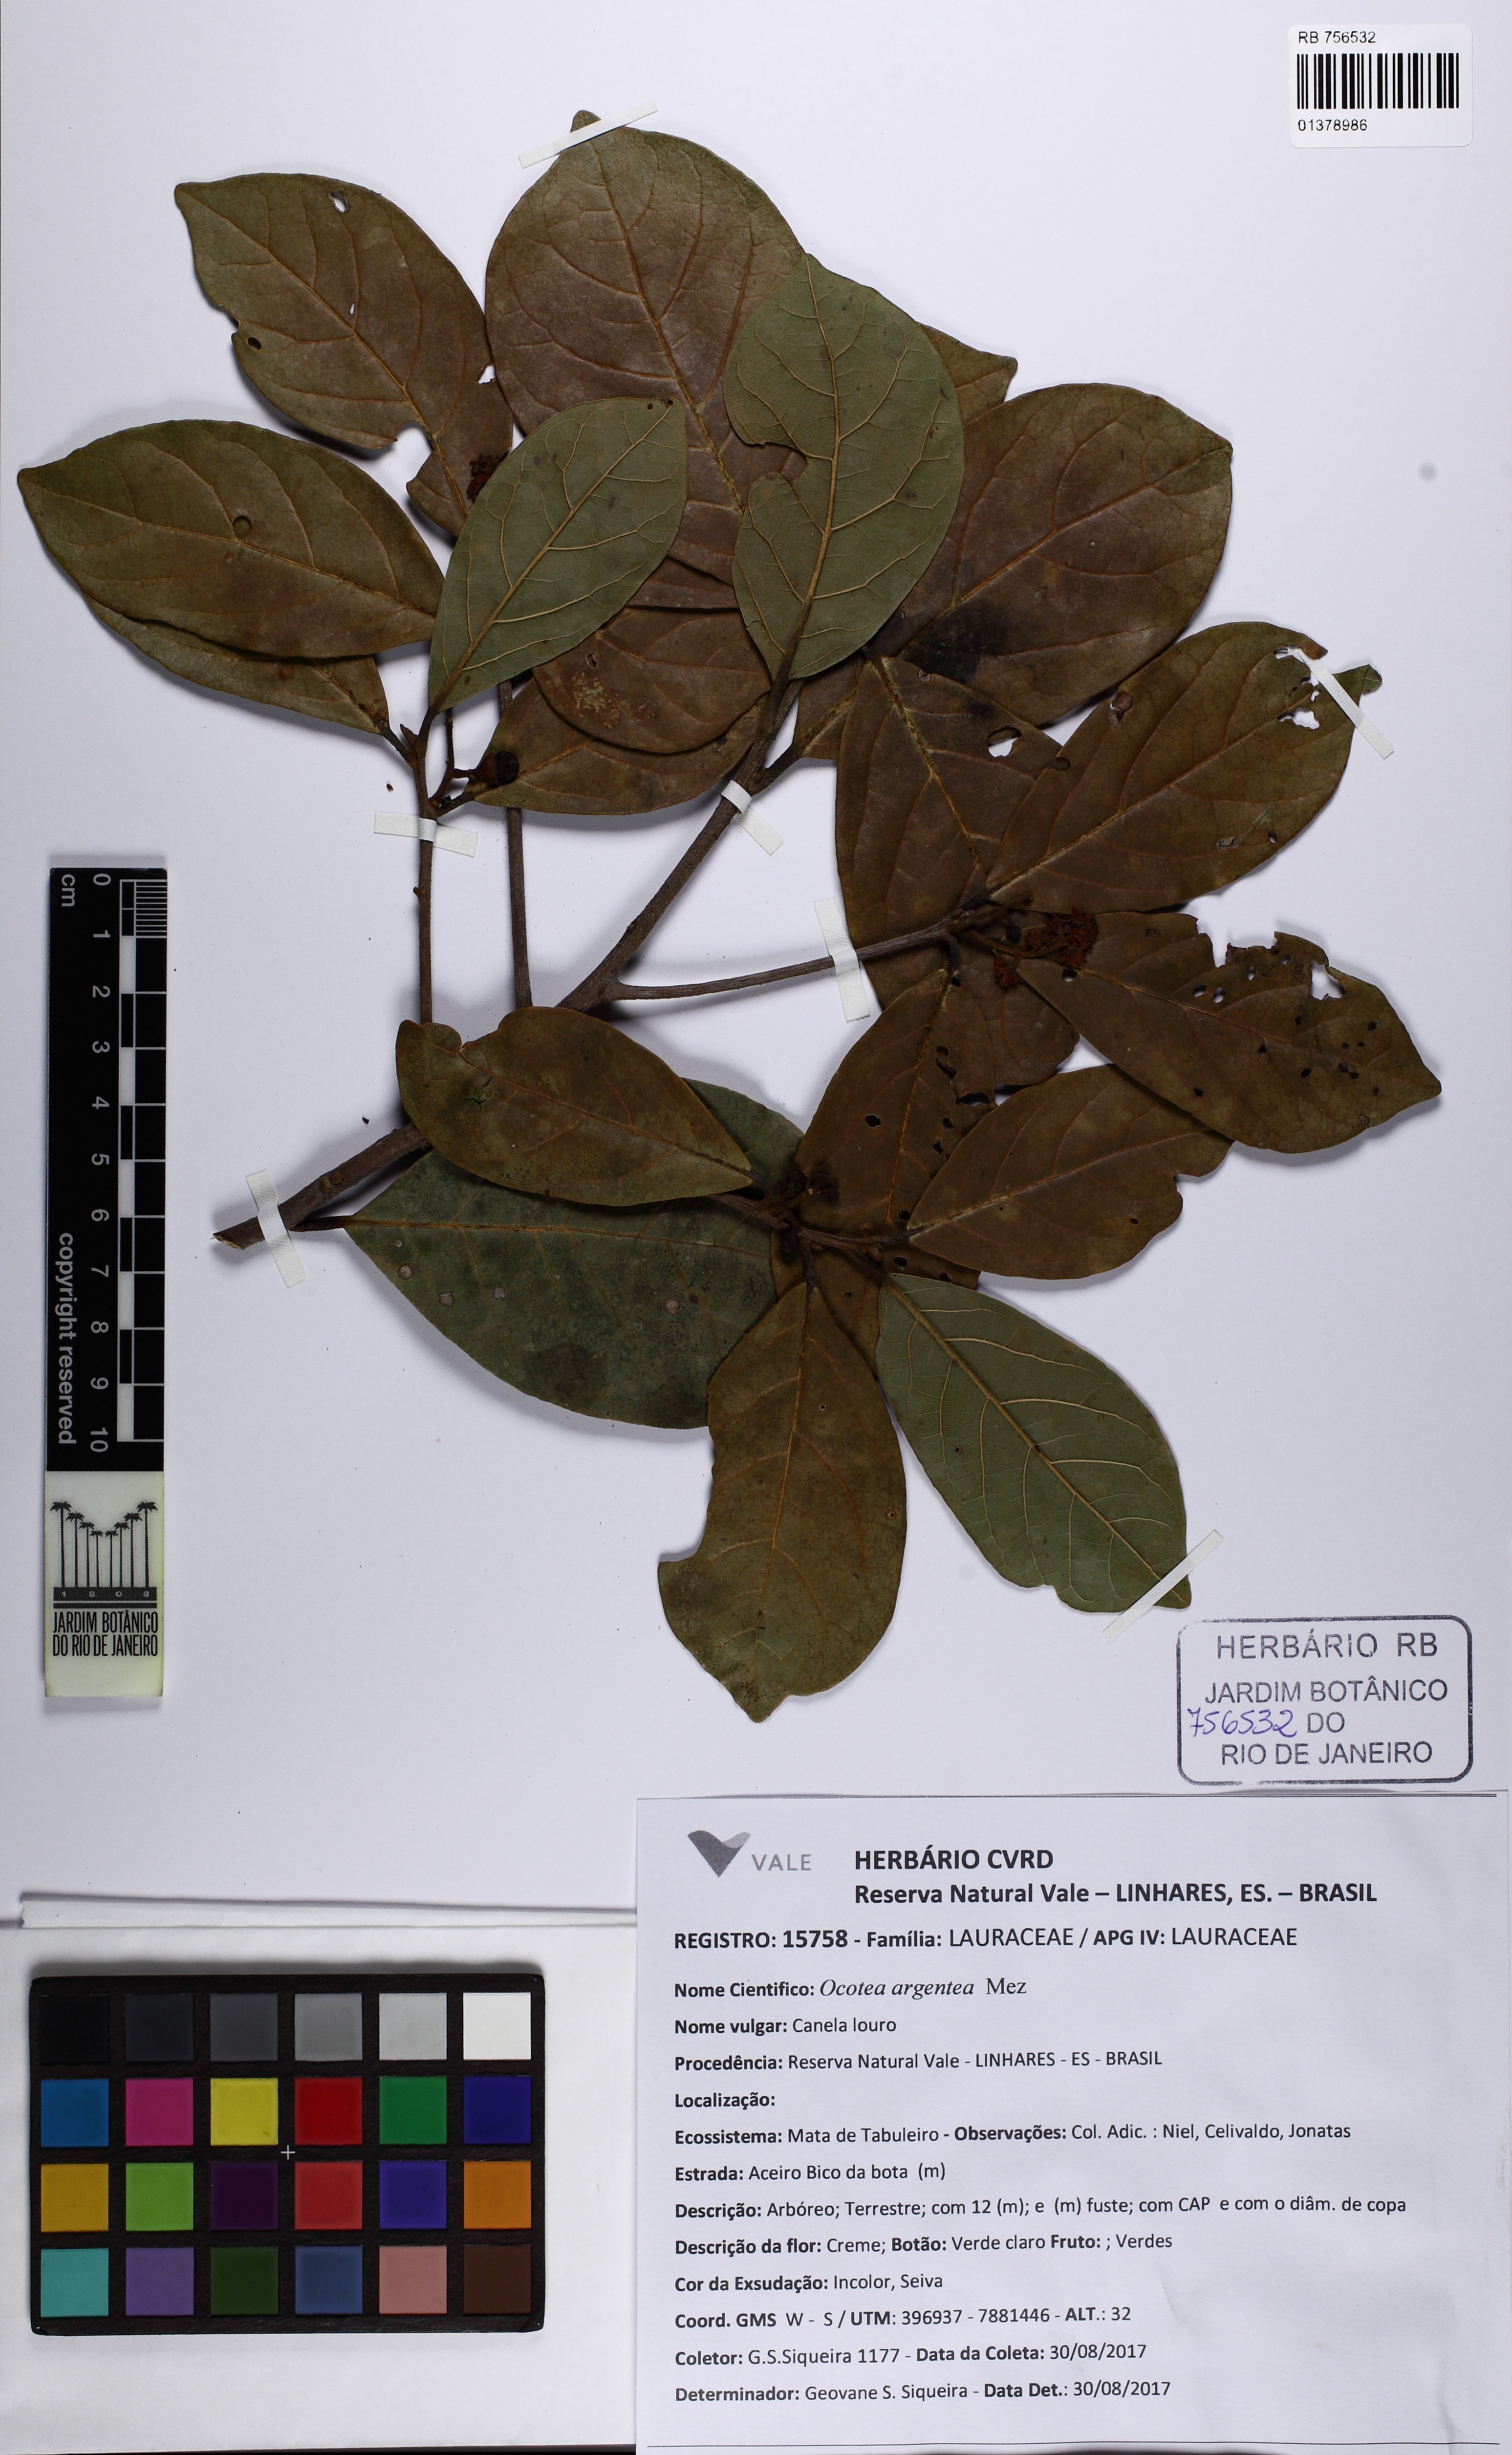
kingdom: Plantae
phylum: Tracheophyta
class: Magnoliopsida
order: Laurales
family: Lauraceae
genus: Ocotea
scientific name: Ocotea argentea
